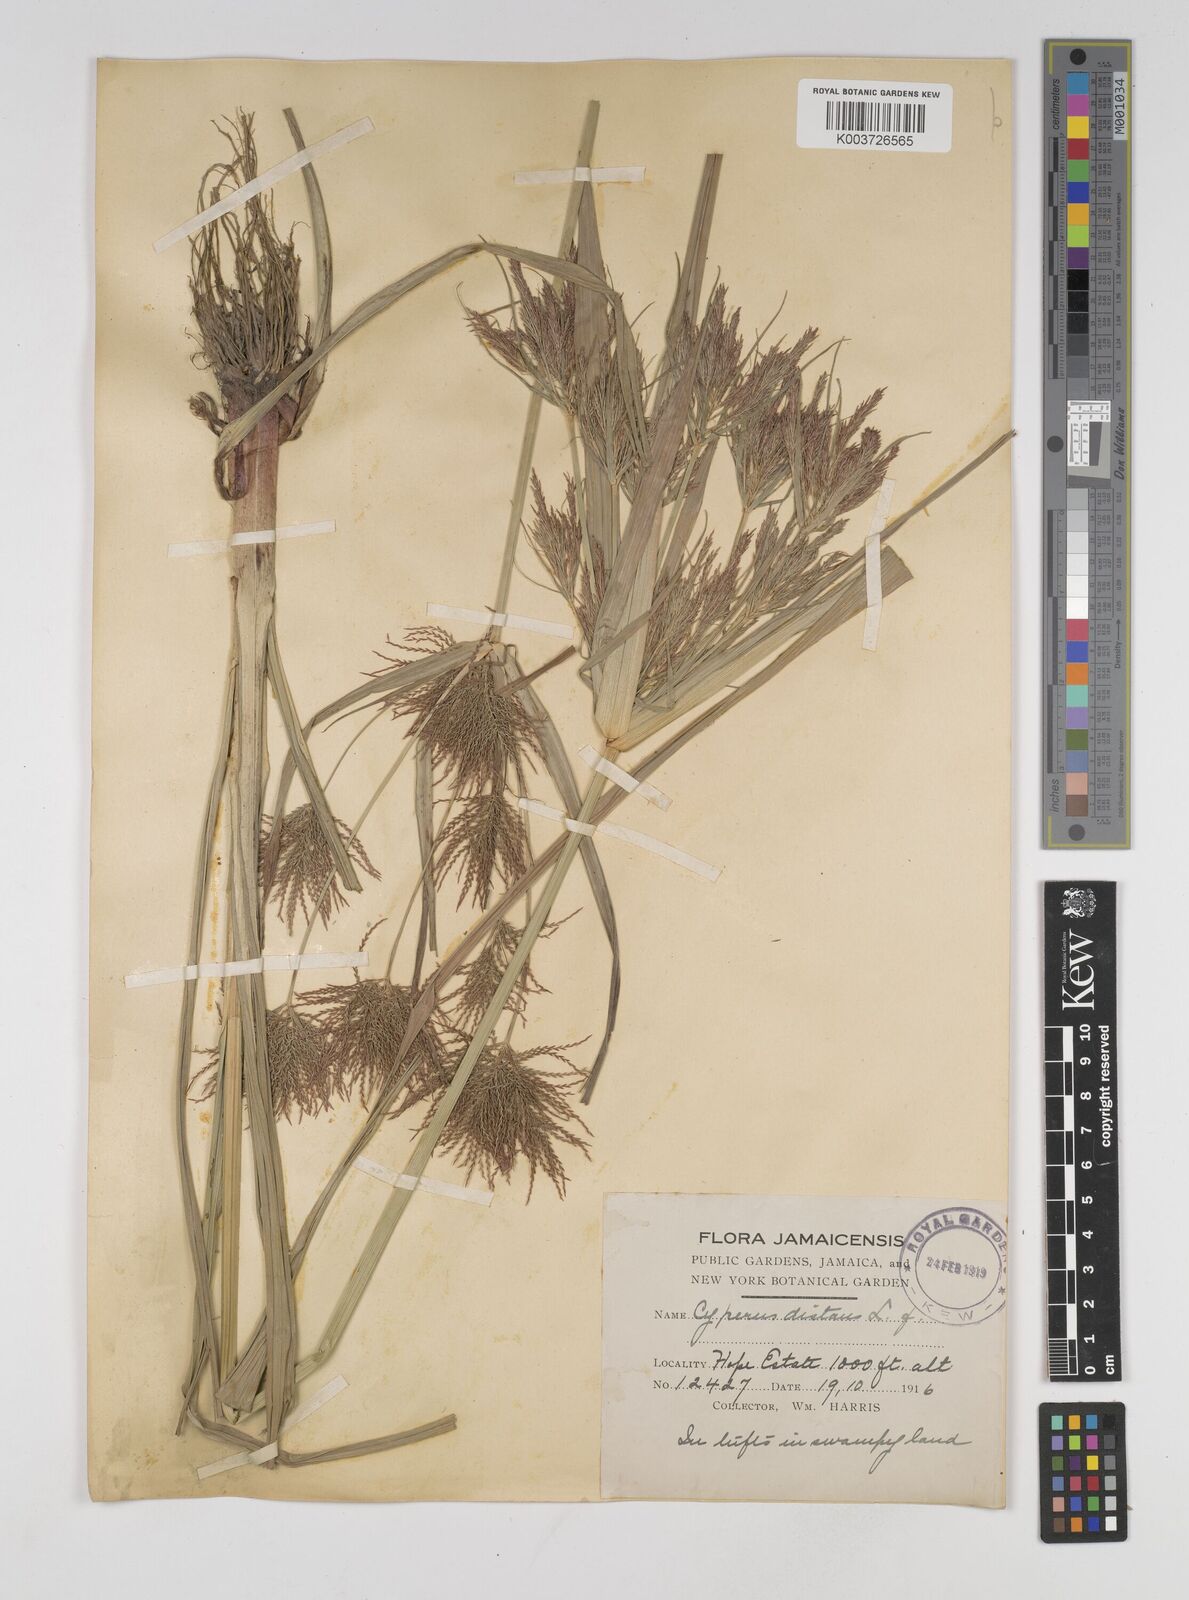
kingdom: Plantae
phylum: Tracheophyta
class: Liliopsida
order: Poales
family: Cyperaceae
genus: Cyperus
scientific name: Cyperus distans
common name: Slender cyperus
